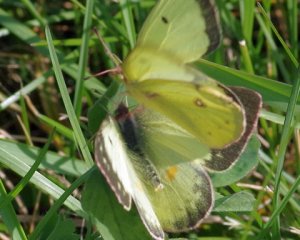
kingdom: Animalia
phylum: Arthropoda
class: Insecta
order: Lepidoptera
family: Pieridae
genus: Colias
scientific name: Colias philodice
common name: Clouded Sulphur
